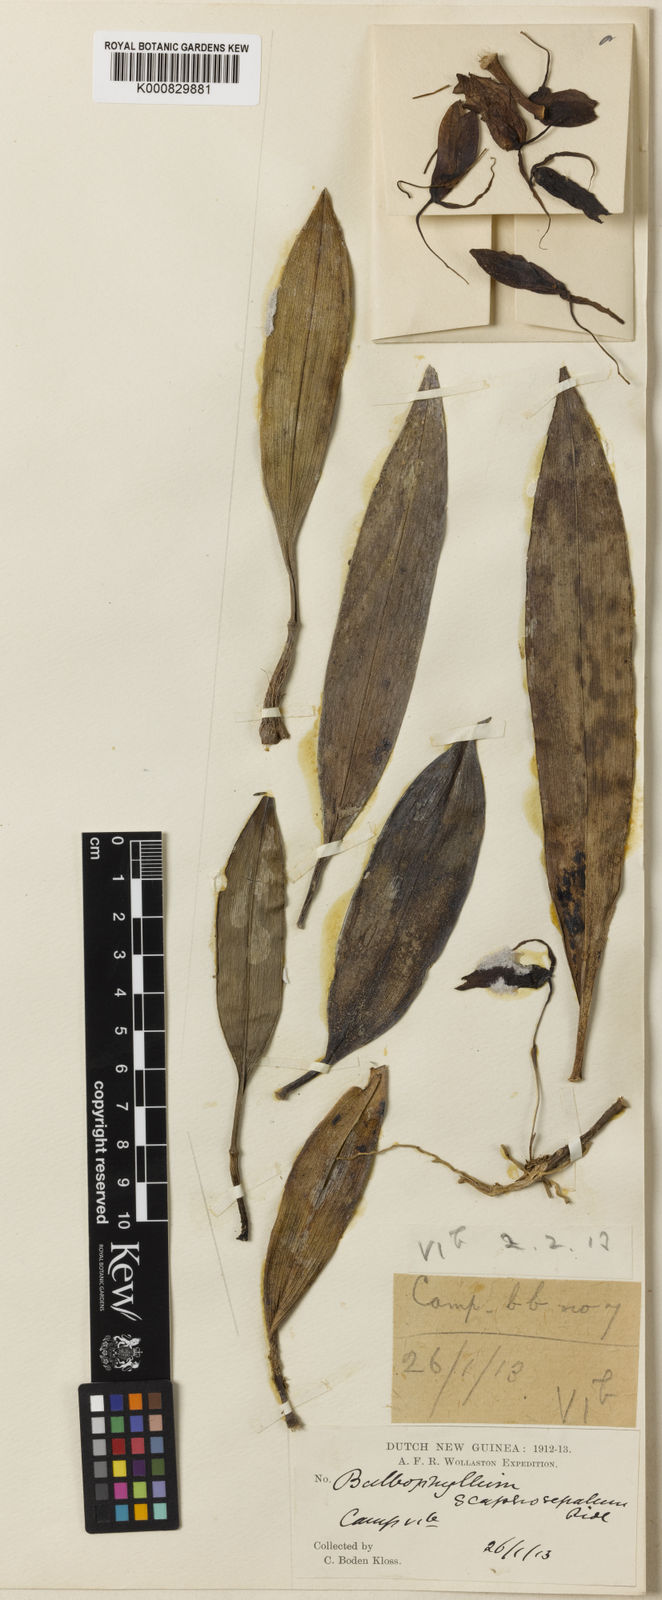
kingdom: Plantae
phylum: Tracheophyta
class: Liliopsida
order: Asparagales
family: Orchidaceae
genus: Bulbophyllum
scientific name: Bulbophyllum scaphosepalum
